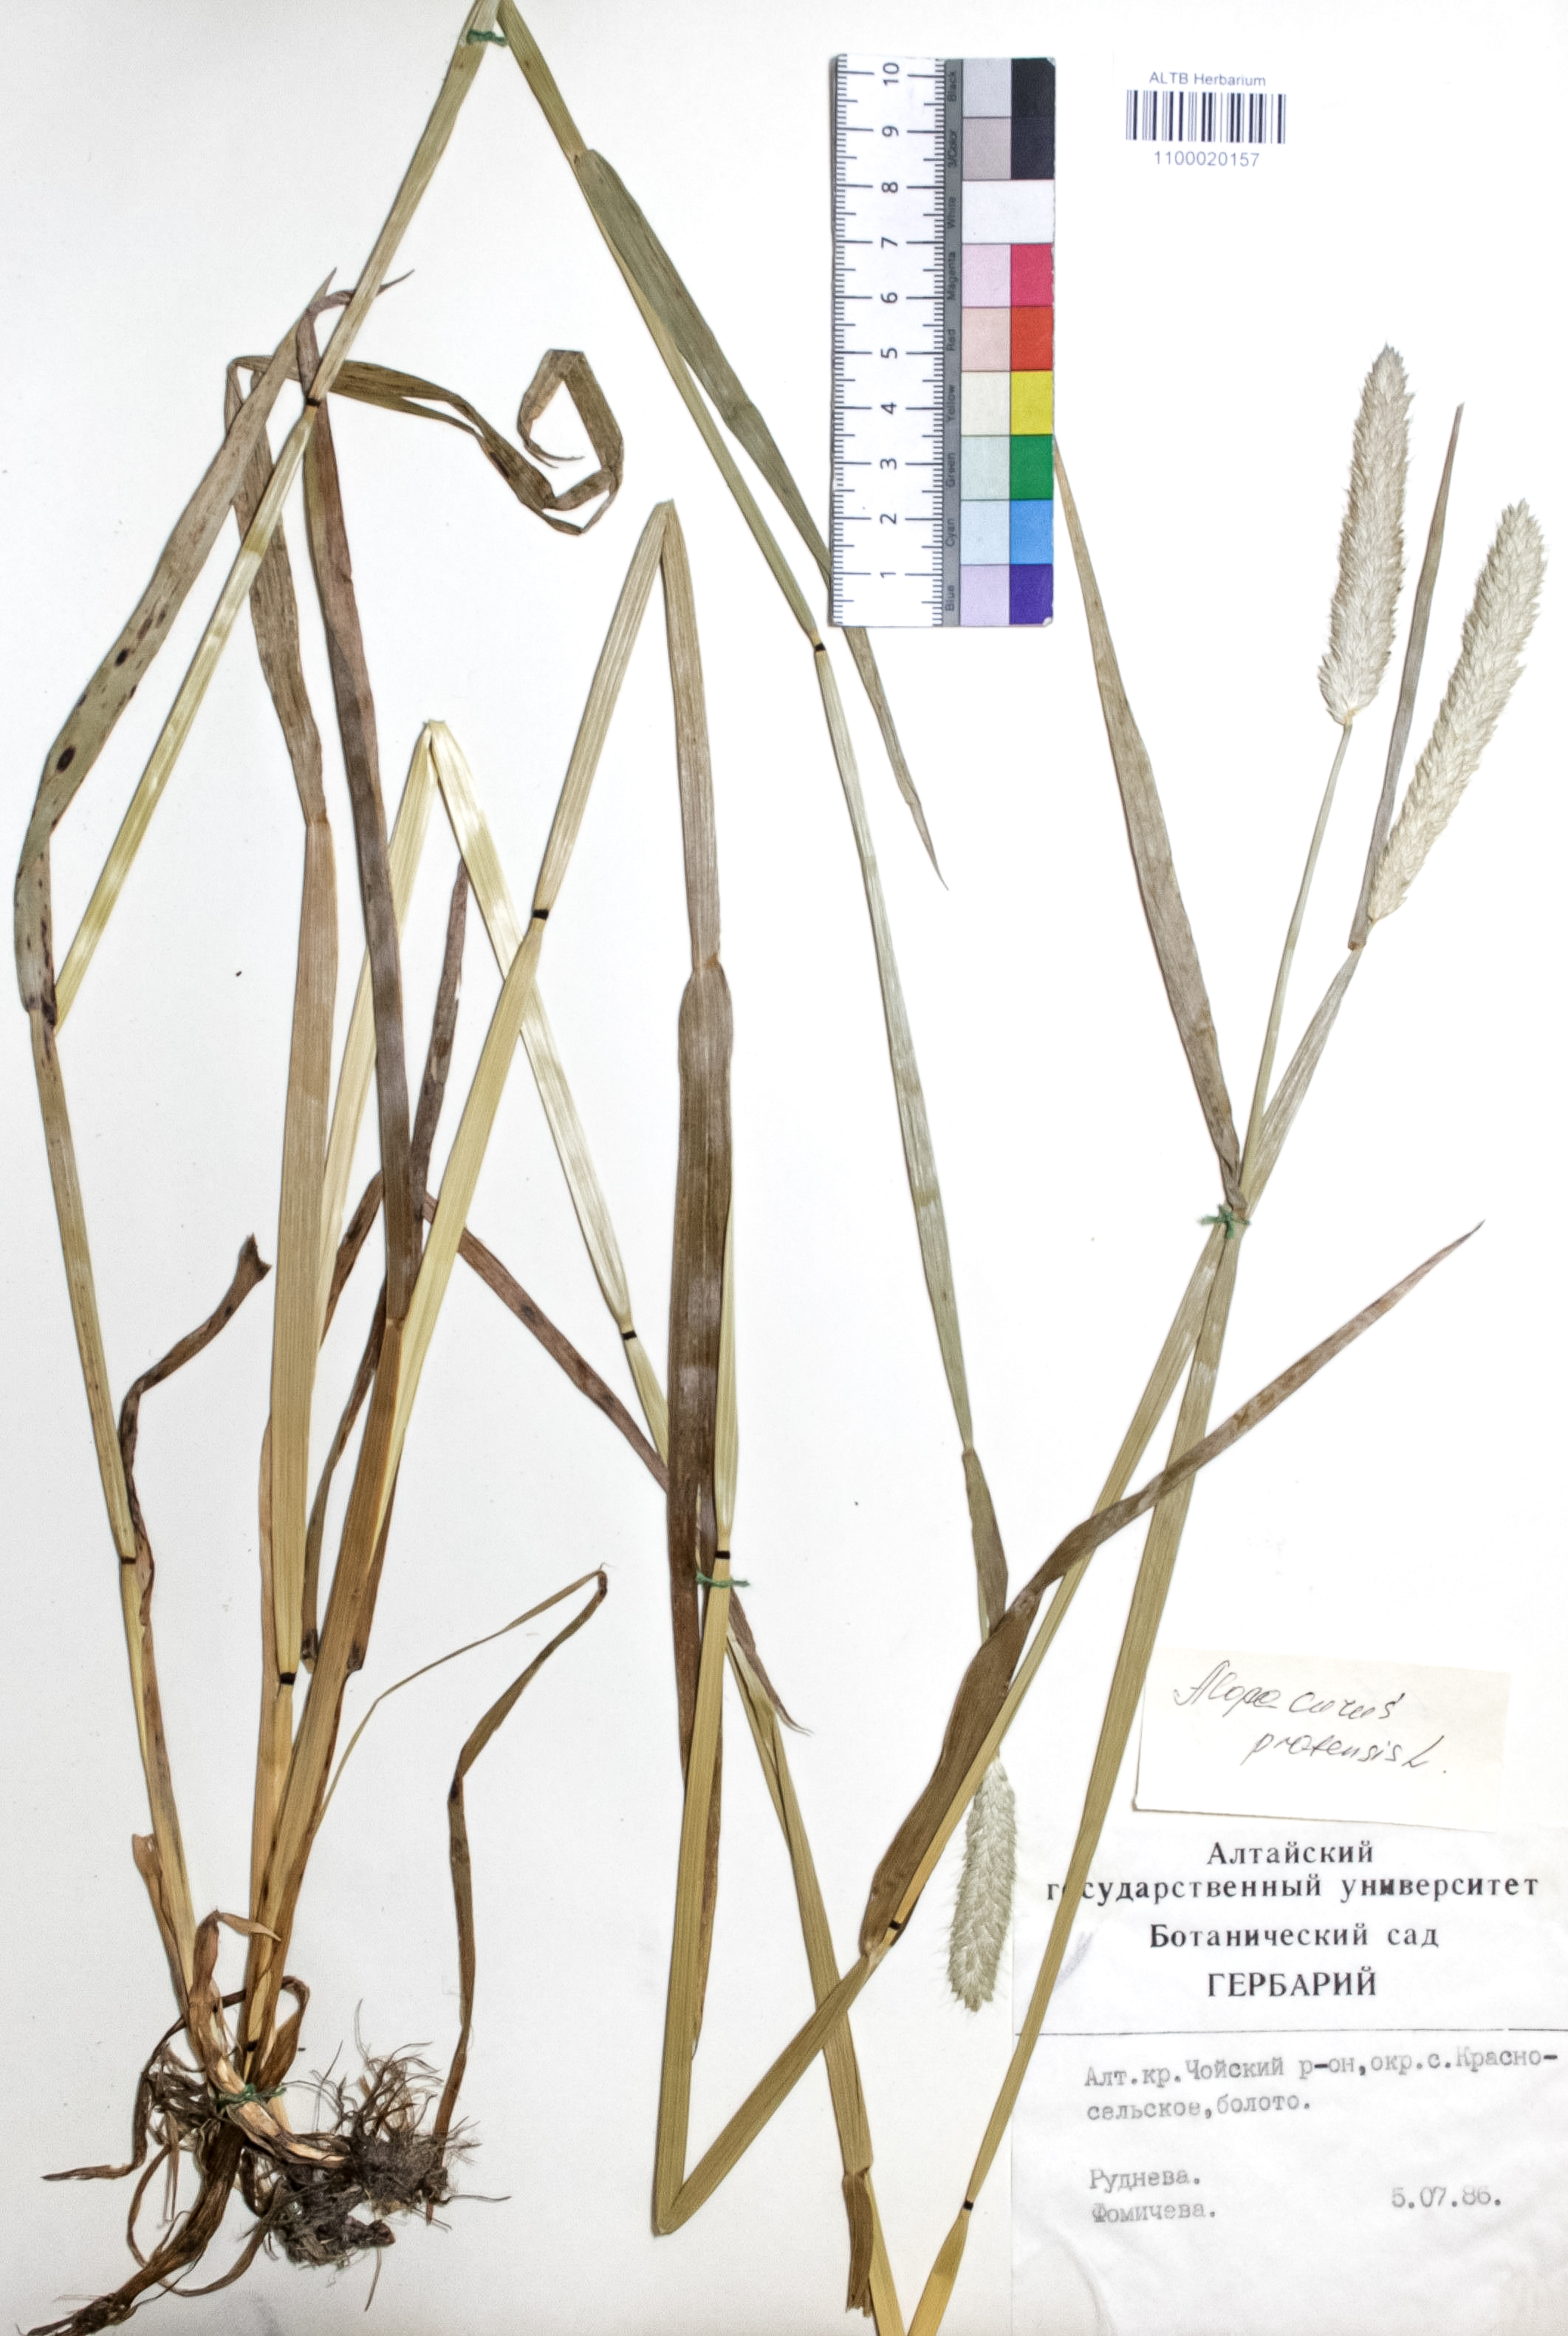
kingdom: Plantae
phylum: Tracheophyta
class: Liliopsida
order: Poales
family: Poaceae
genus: Alopecurus
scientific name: Alopecurus pratensis
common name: Meadow foxtail
